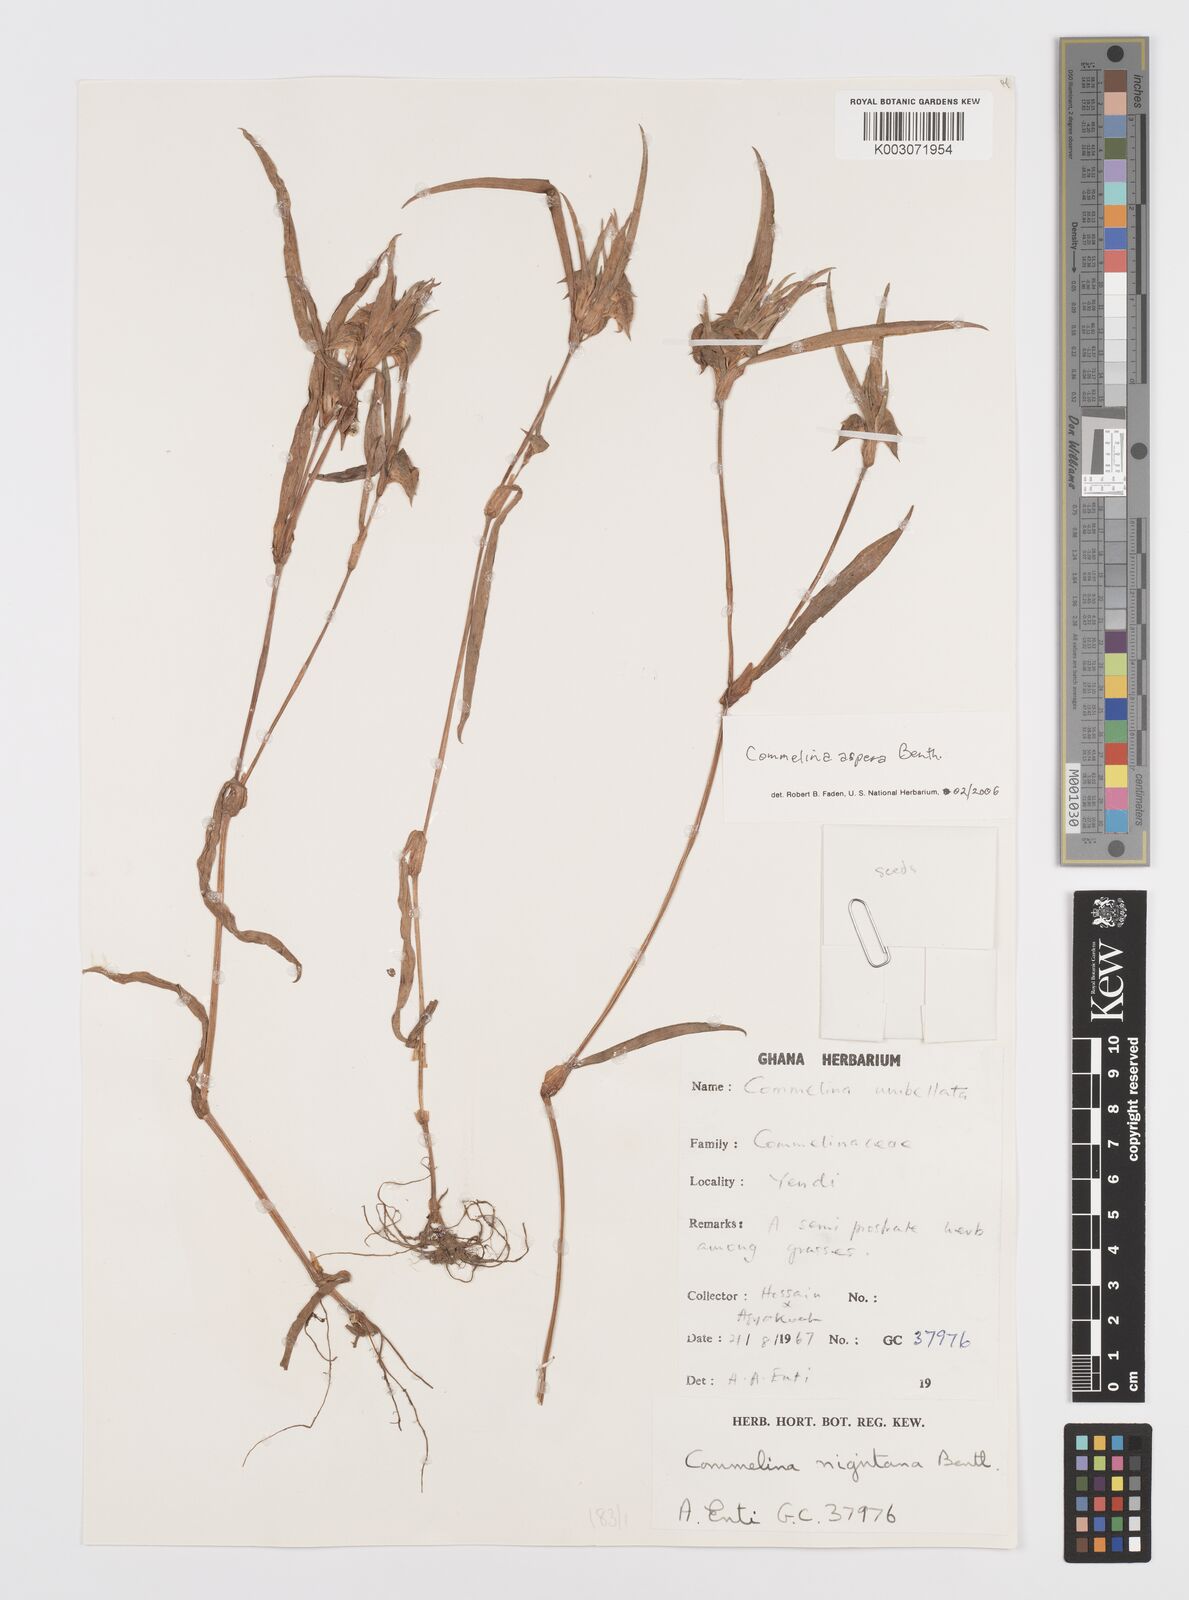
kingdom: Plantae
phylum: Tracheophyta
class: Liliopsida
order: Commelinales
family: Commelinaceae
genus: Commelina
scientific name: Commelina aspera
